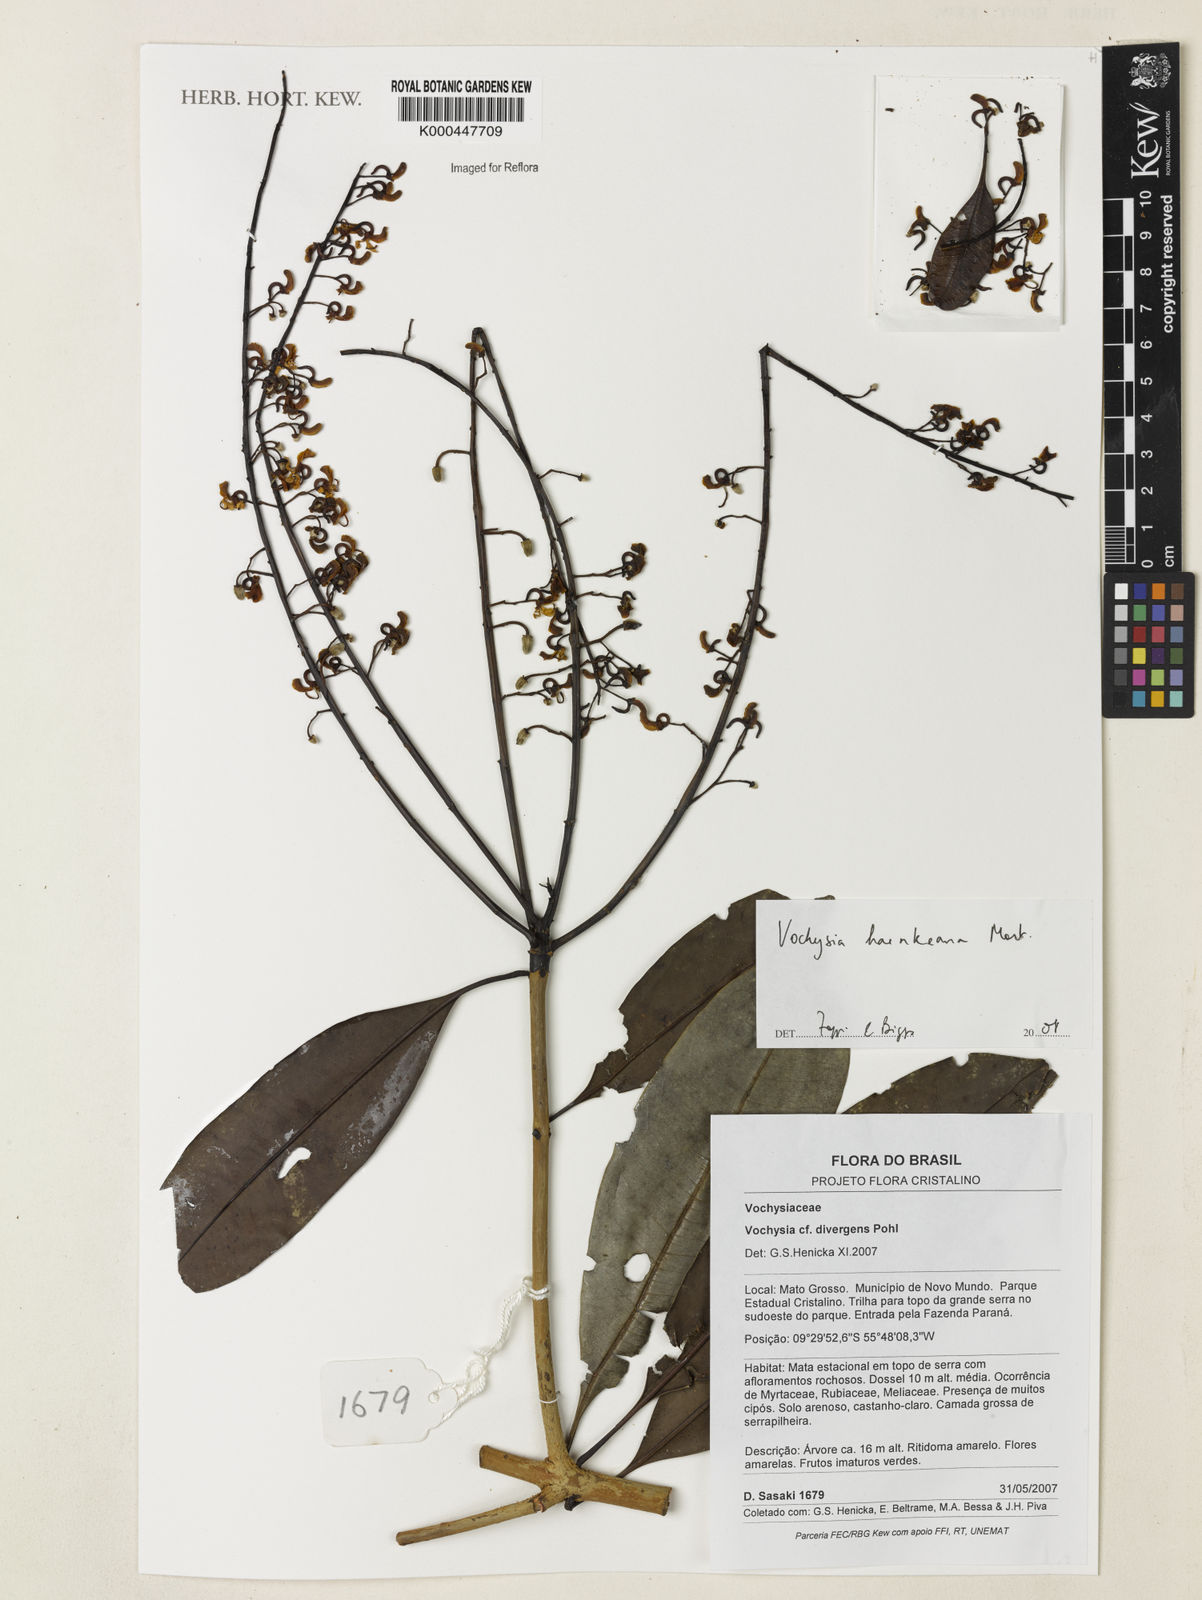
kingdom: Plantae
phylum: Tracheophyta
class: Magnoliopsida
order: Myrtales
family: Vochysiaceae
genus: Vochysia
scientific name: Vochysia haenkeana
